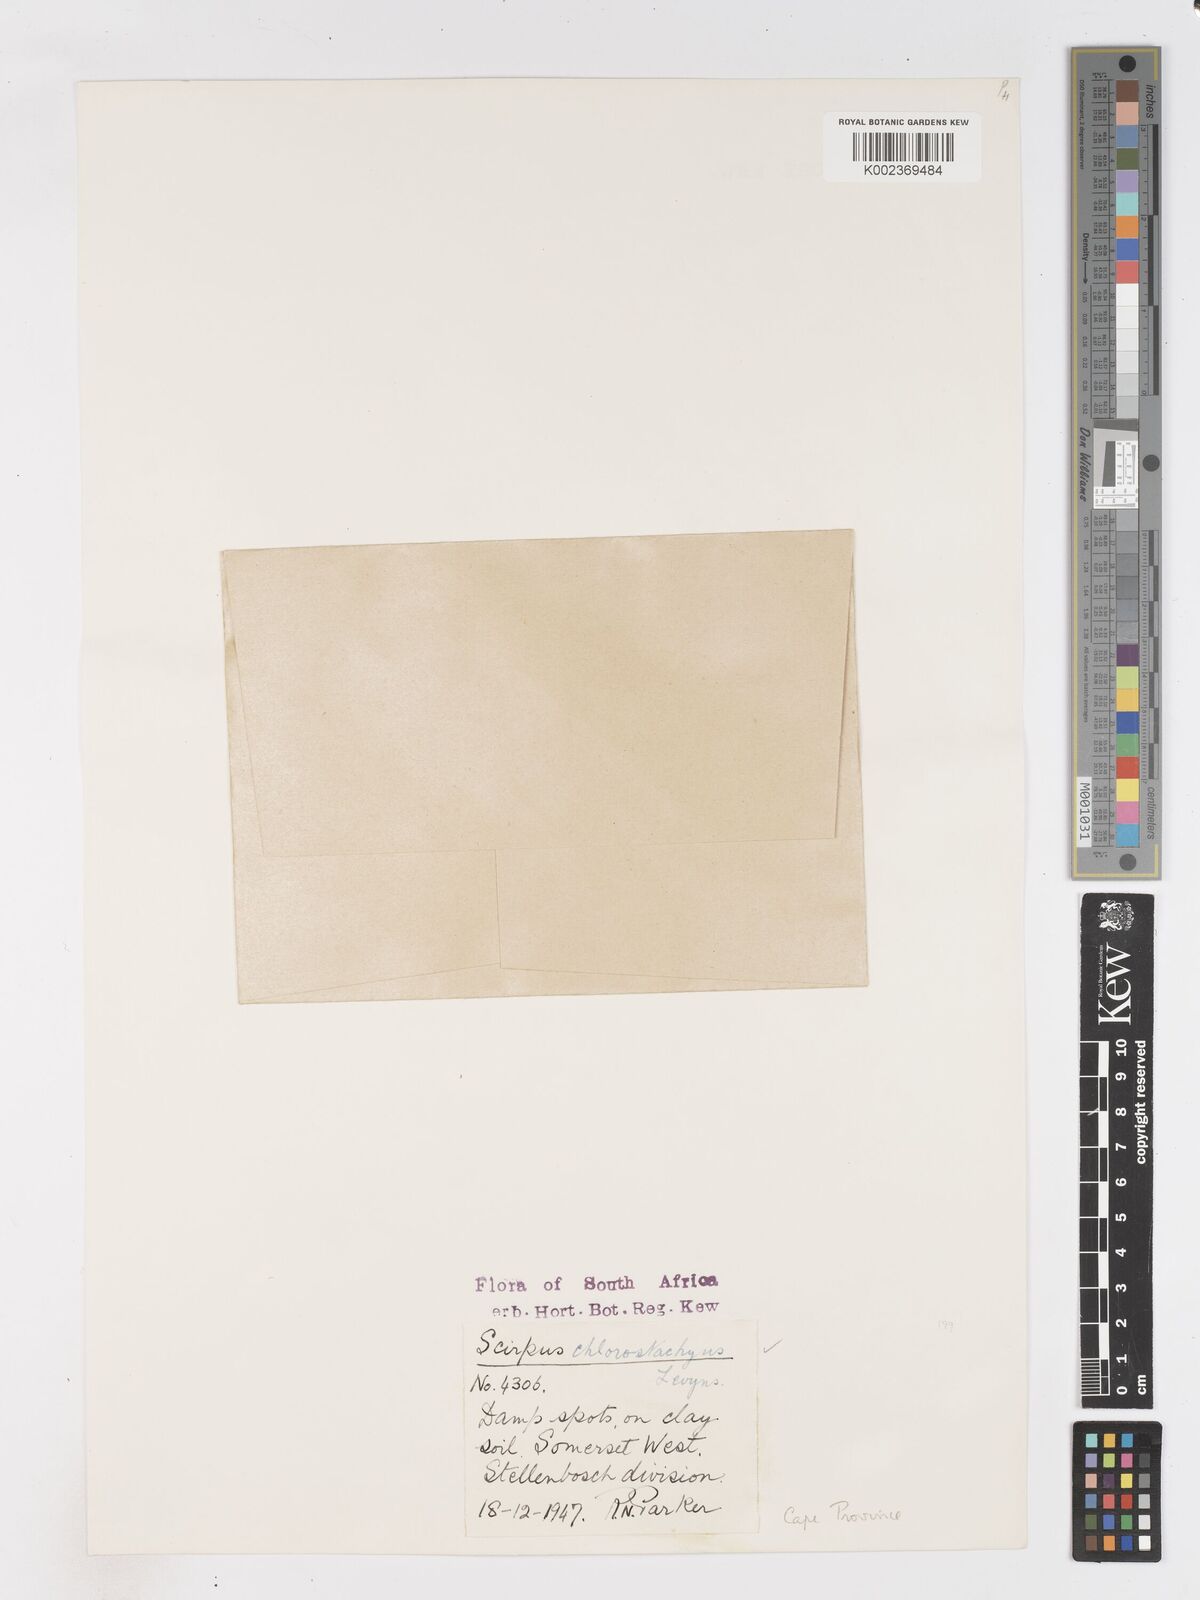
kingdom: Plantae
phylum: Tracheophyta
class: Liliopsida
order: Poales
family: Cyperaceae
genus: Isolepis
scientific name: Isolepis sepulcralis
